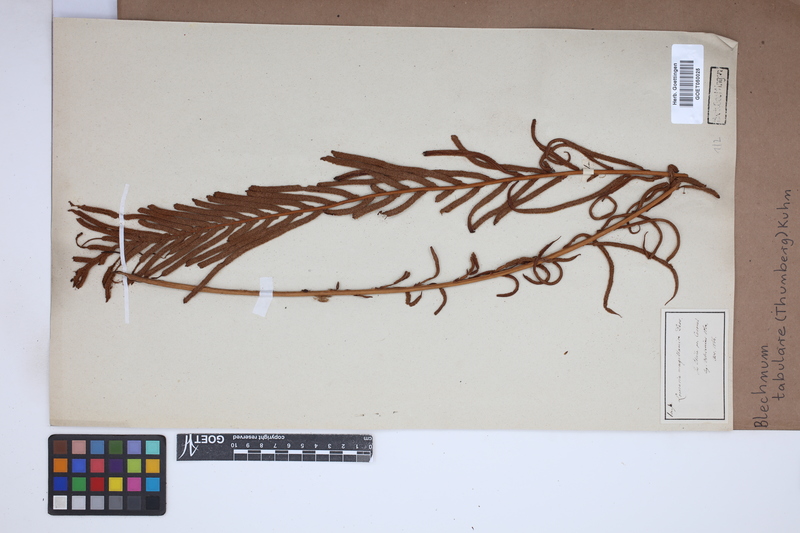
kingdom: Plantae
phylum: Tracheophyta
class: Polypodiopsida
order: Polypodiales
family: Blechnaceae
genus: Lomariocycas
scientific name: Lomariocycas tabularis
